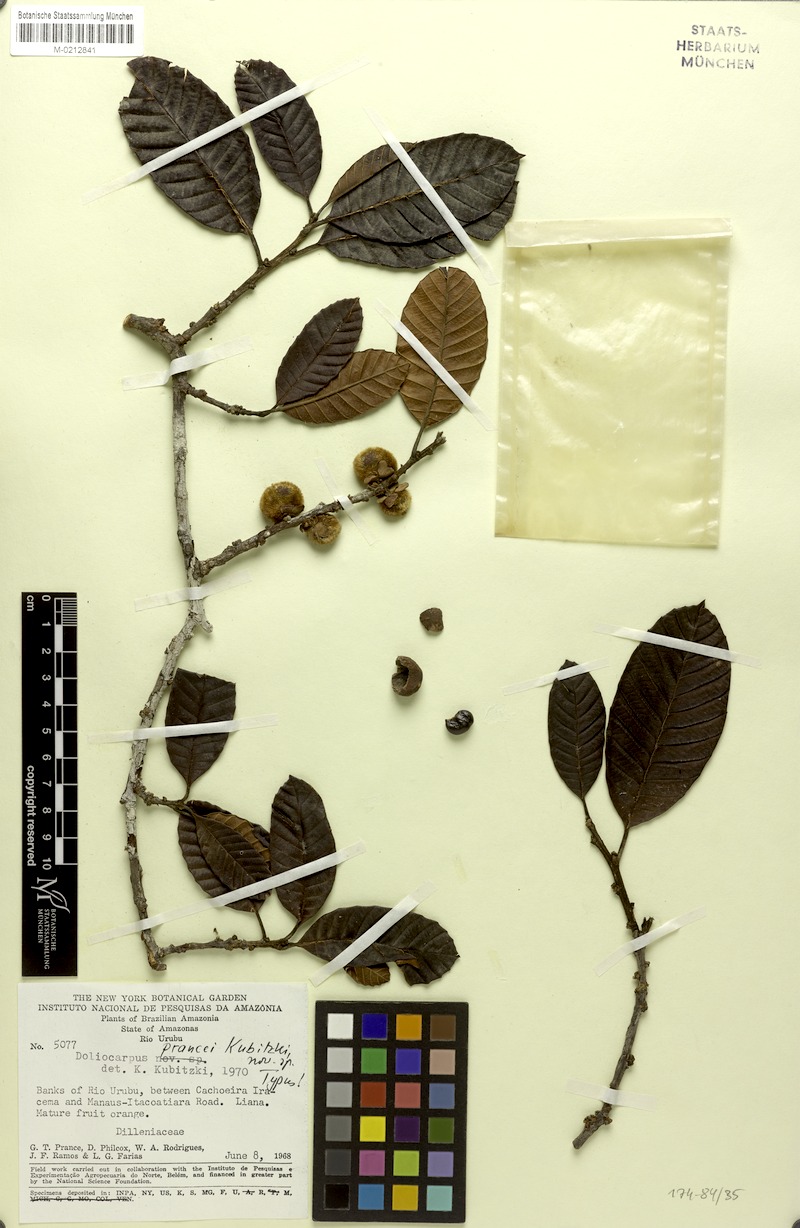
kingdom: Plantae
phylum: Tracheophyta
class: Magnoliopsida
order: Dilleniales
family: Dilleniaceae
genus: Doliocarpus
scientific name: Doliocarpus prancei
